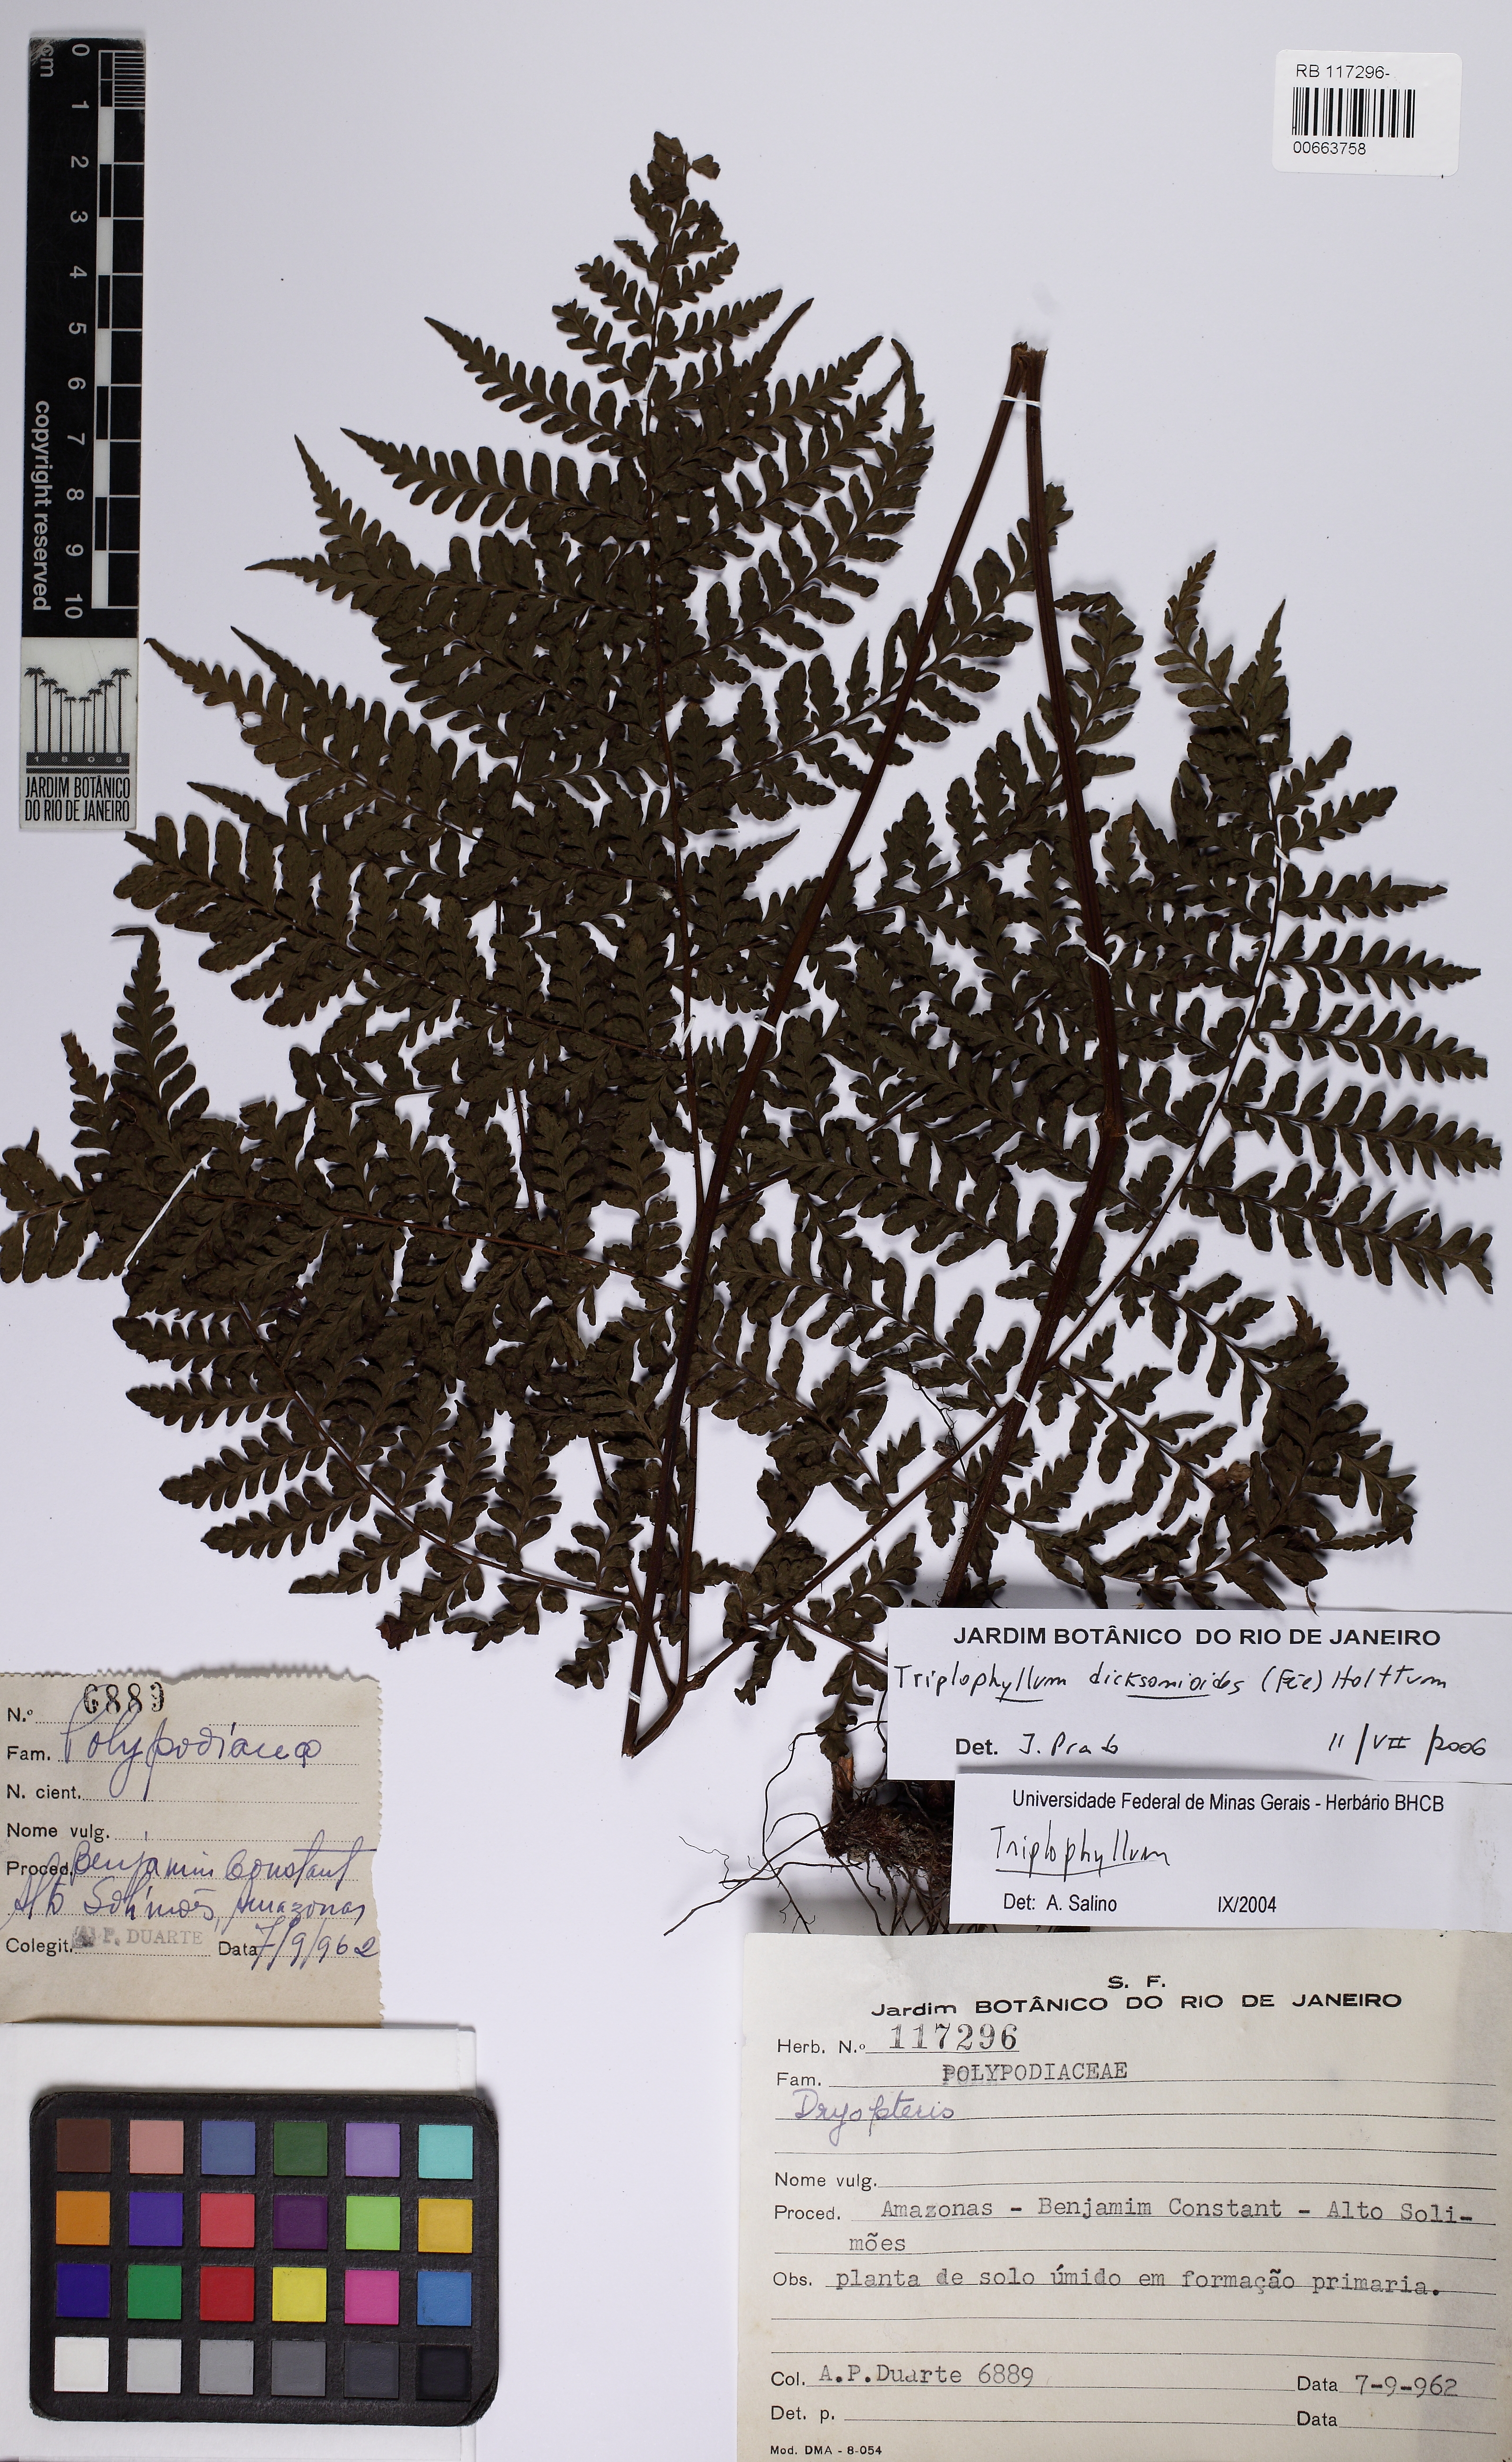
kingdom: Plantae
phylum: Tracheophyta
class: Polypodiopsida
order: Polypodiales
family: Tectariaceae
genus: Triplophyllum
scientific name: Triplophyllum dicksonioides
